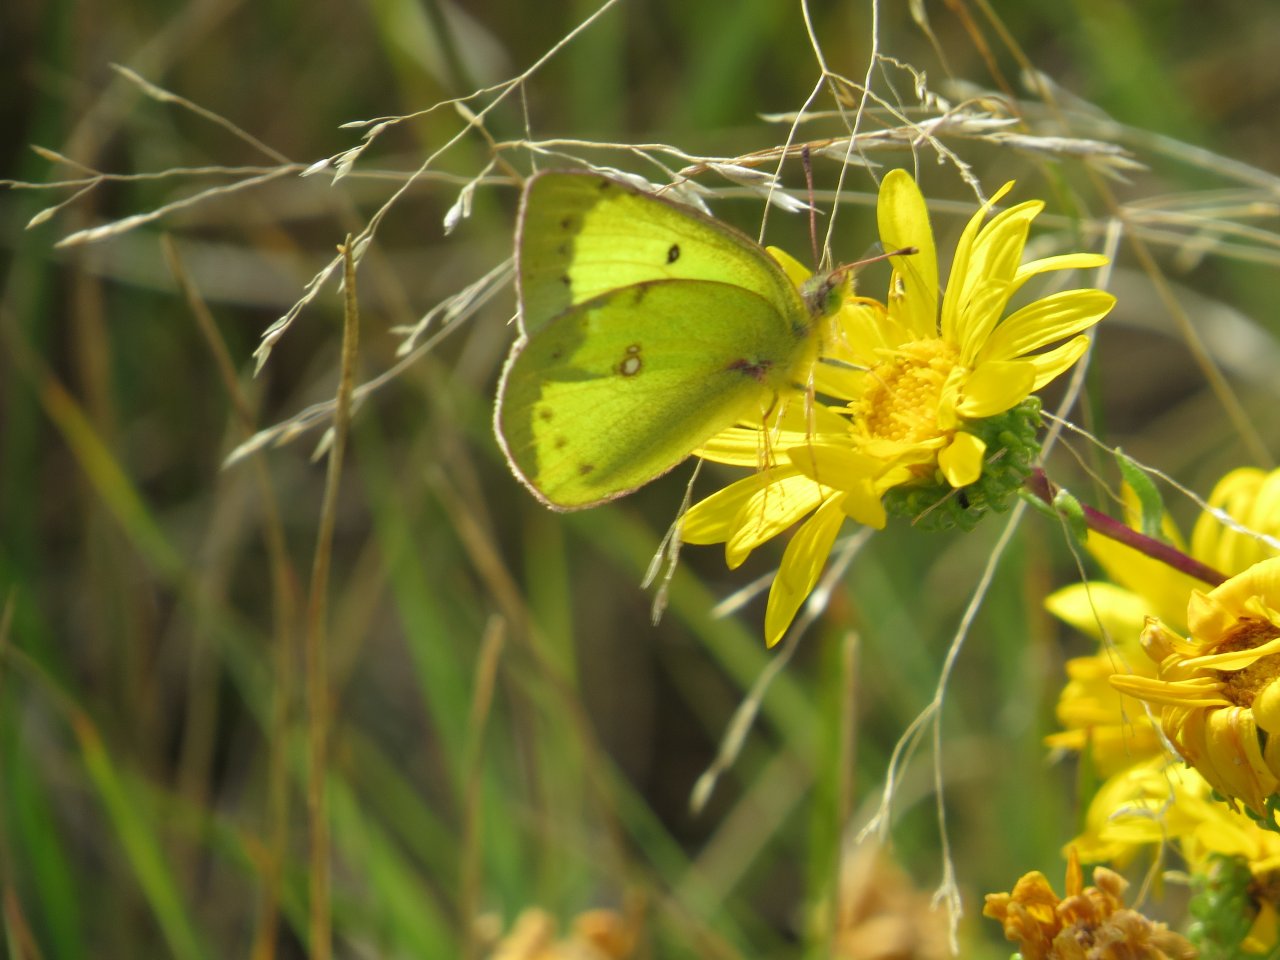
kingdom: Animalia
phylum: Arthropoda
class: Insecta
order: Lepidoptera
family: Pieridae
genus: Colias
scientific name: Colias philodice
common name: Clouded Sulphur
